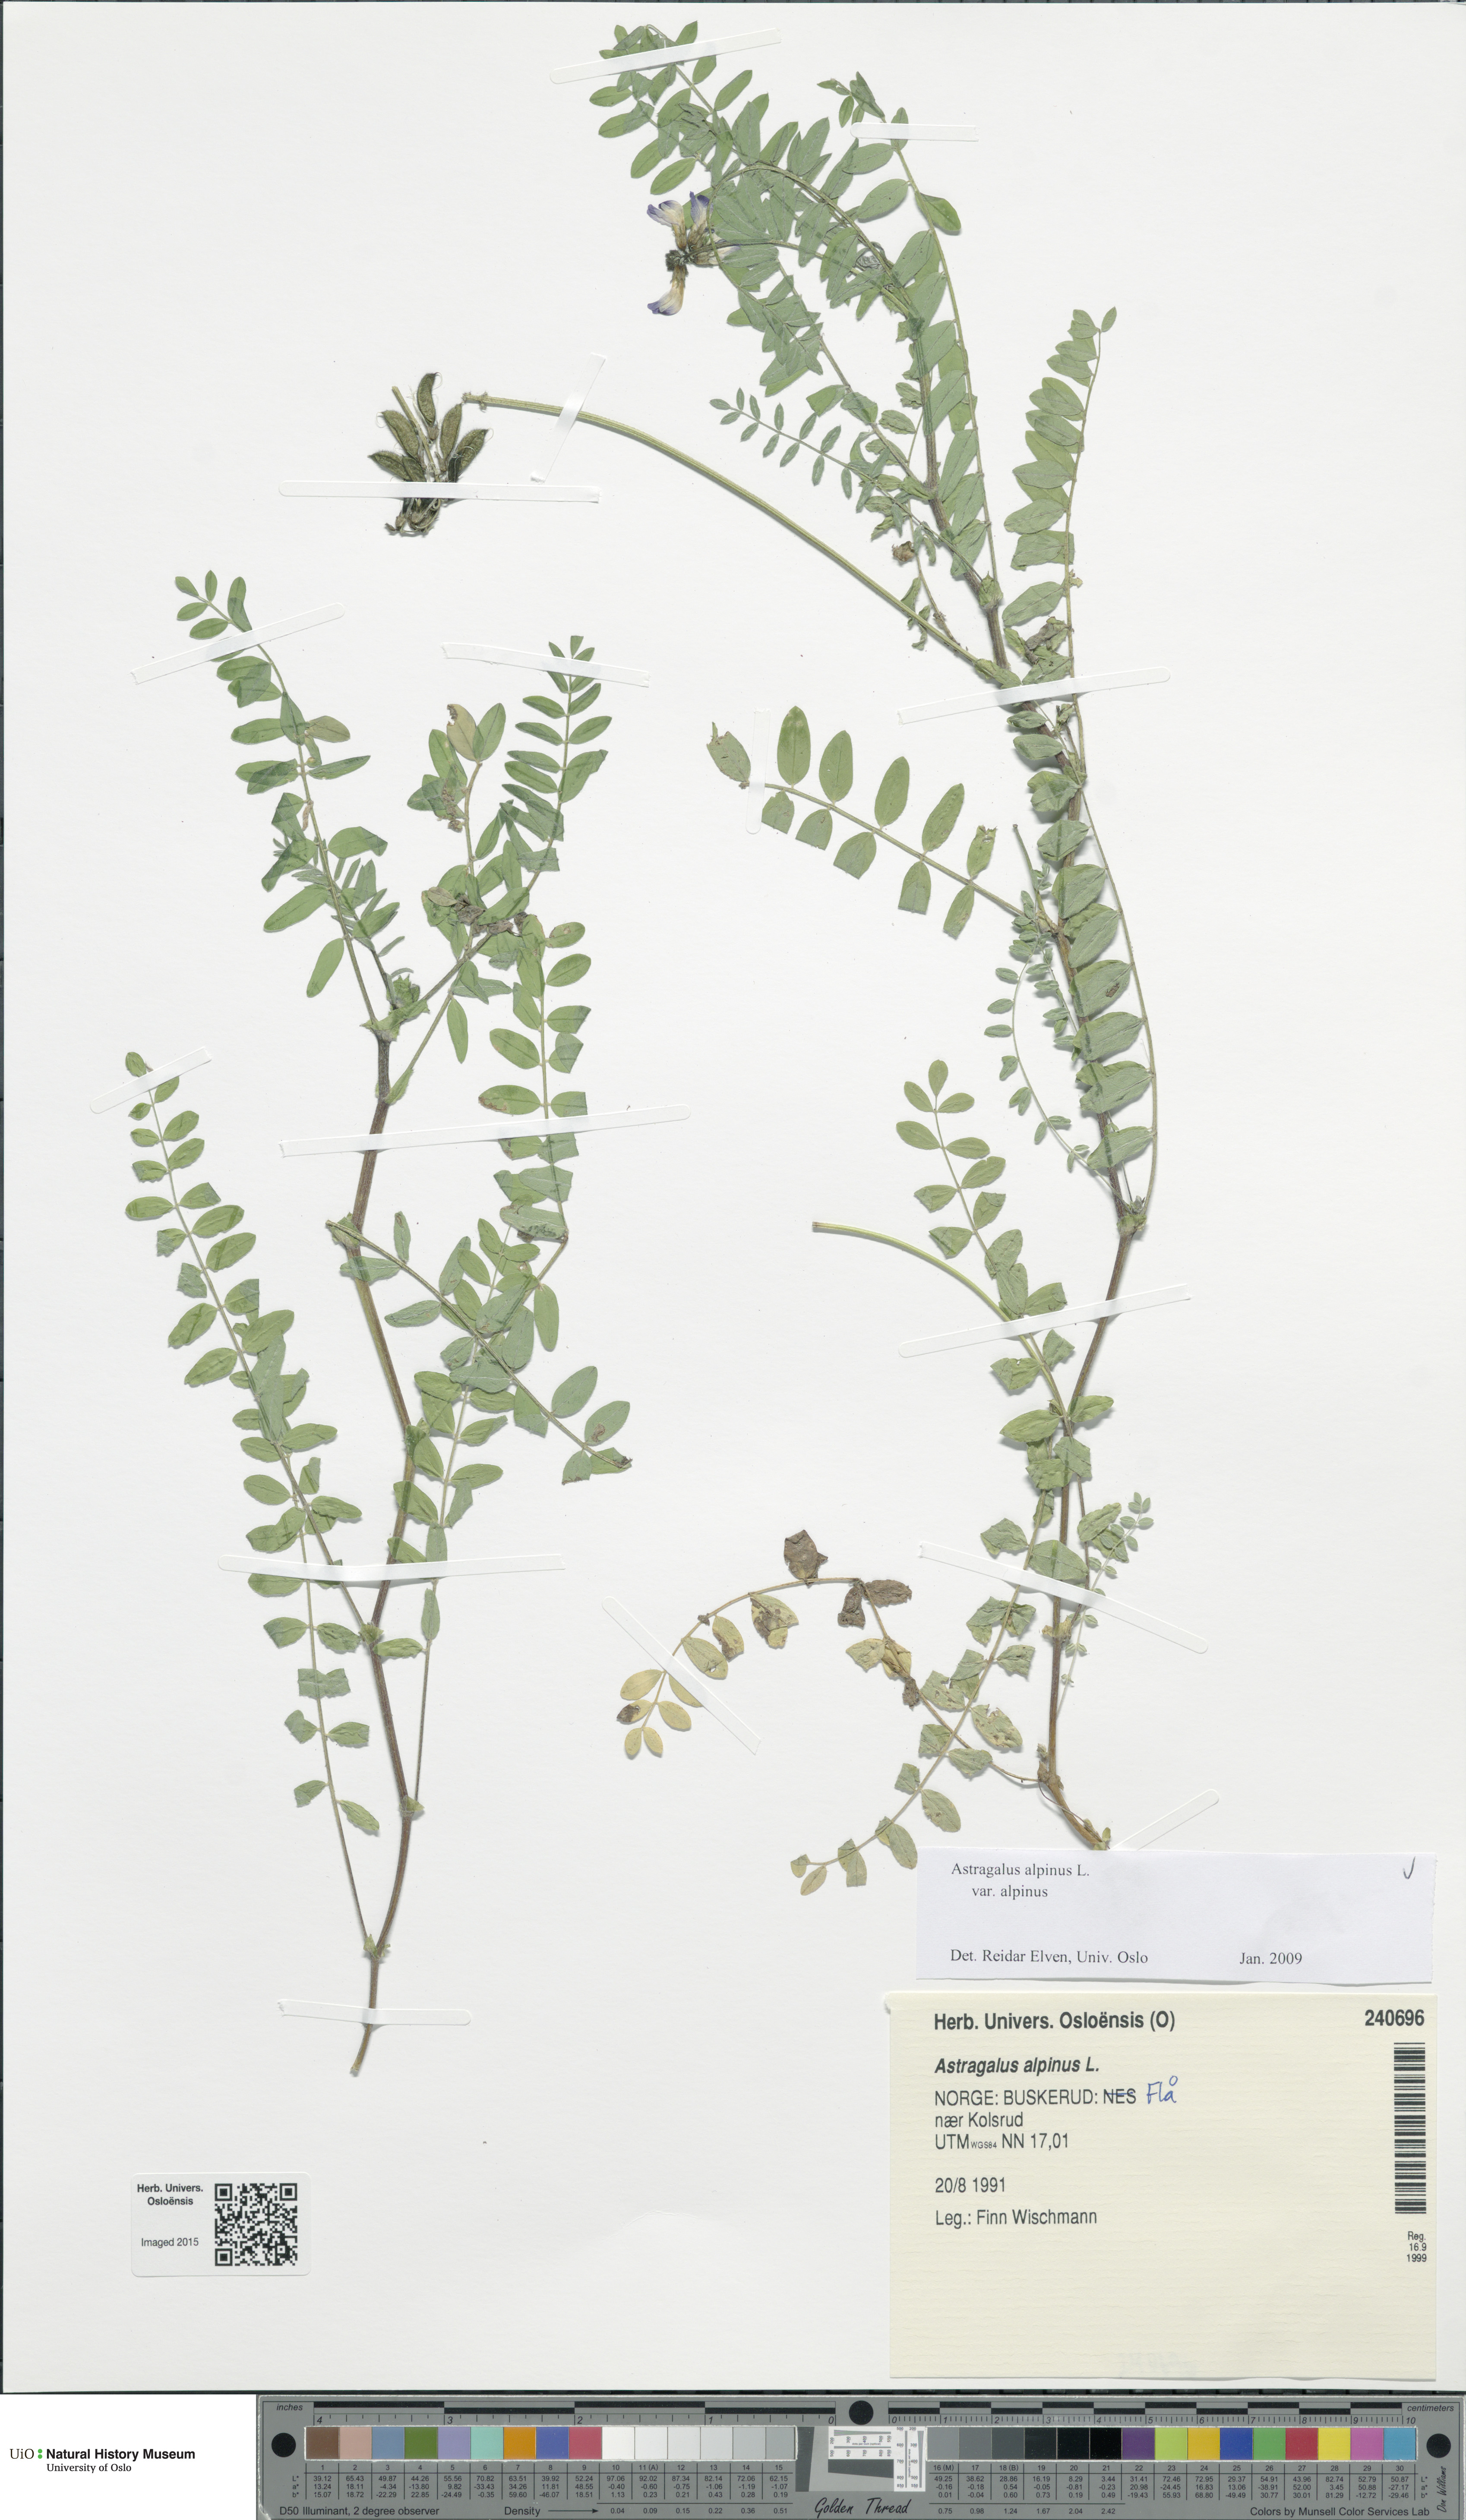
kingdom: Plantae
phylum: Tracheophyta
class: Magnoliopsida
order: Fabales
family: Fabaceae
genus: Astragalus
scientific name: Astragalus alpinus
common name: Alpine milk-vetch
